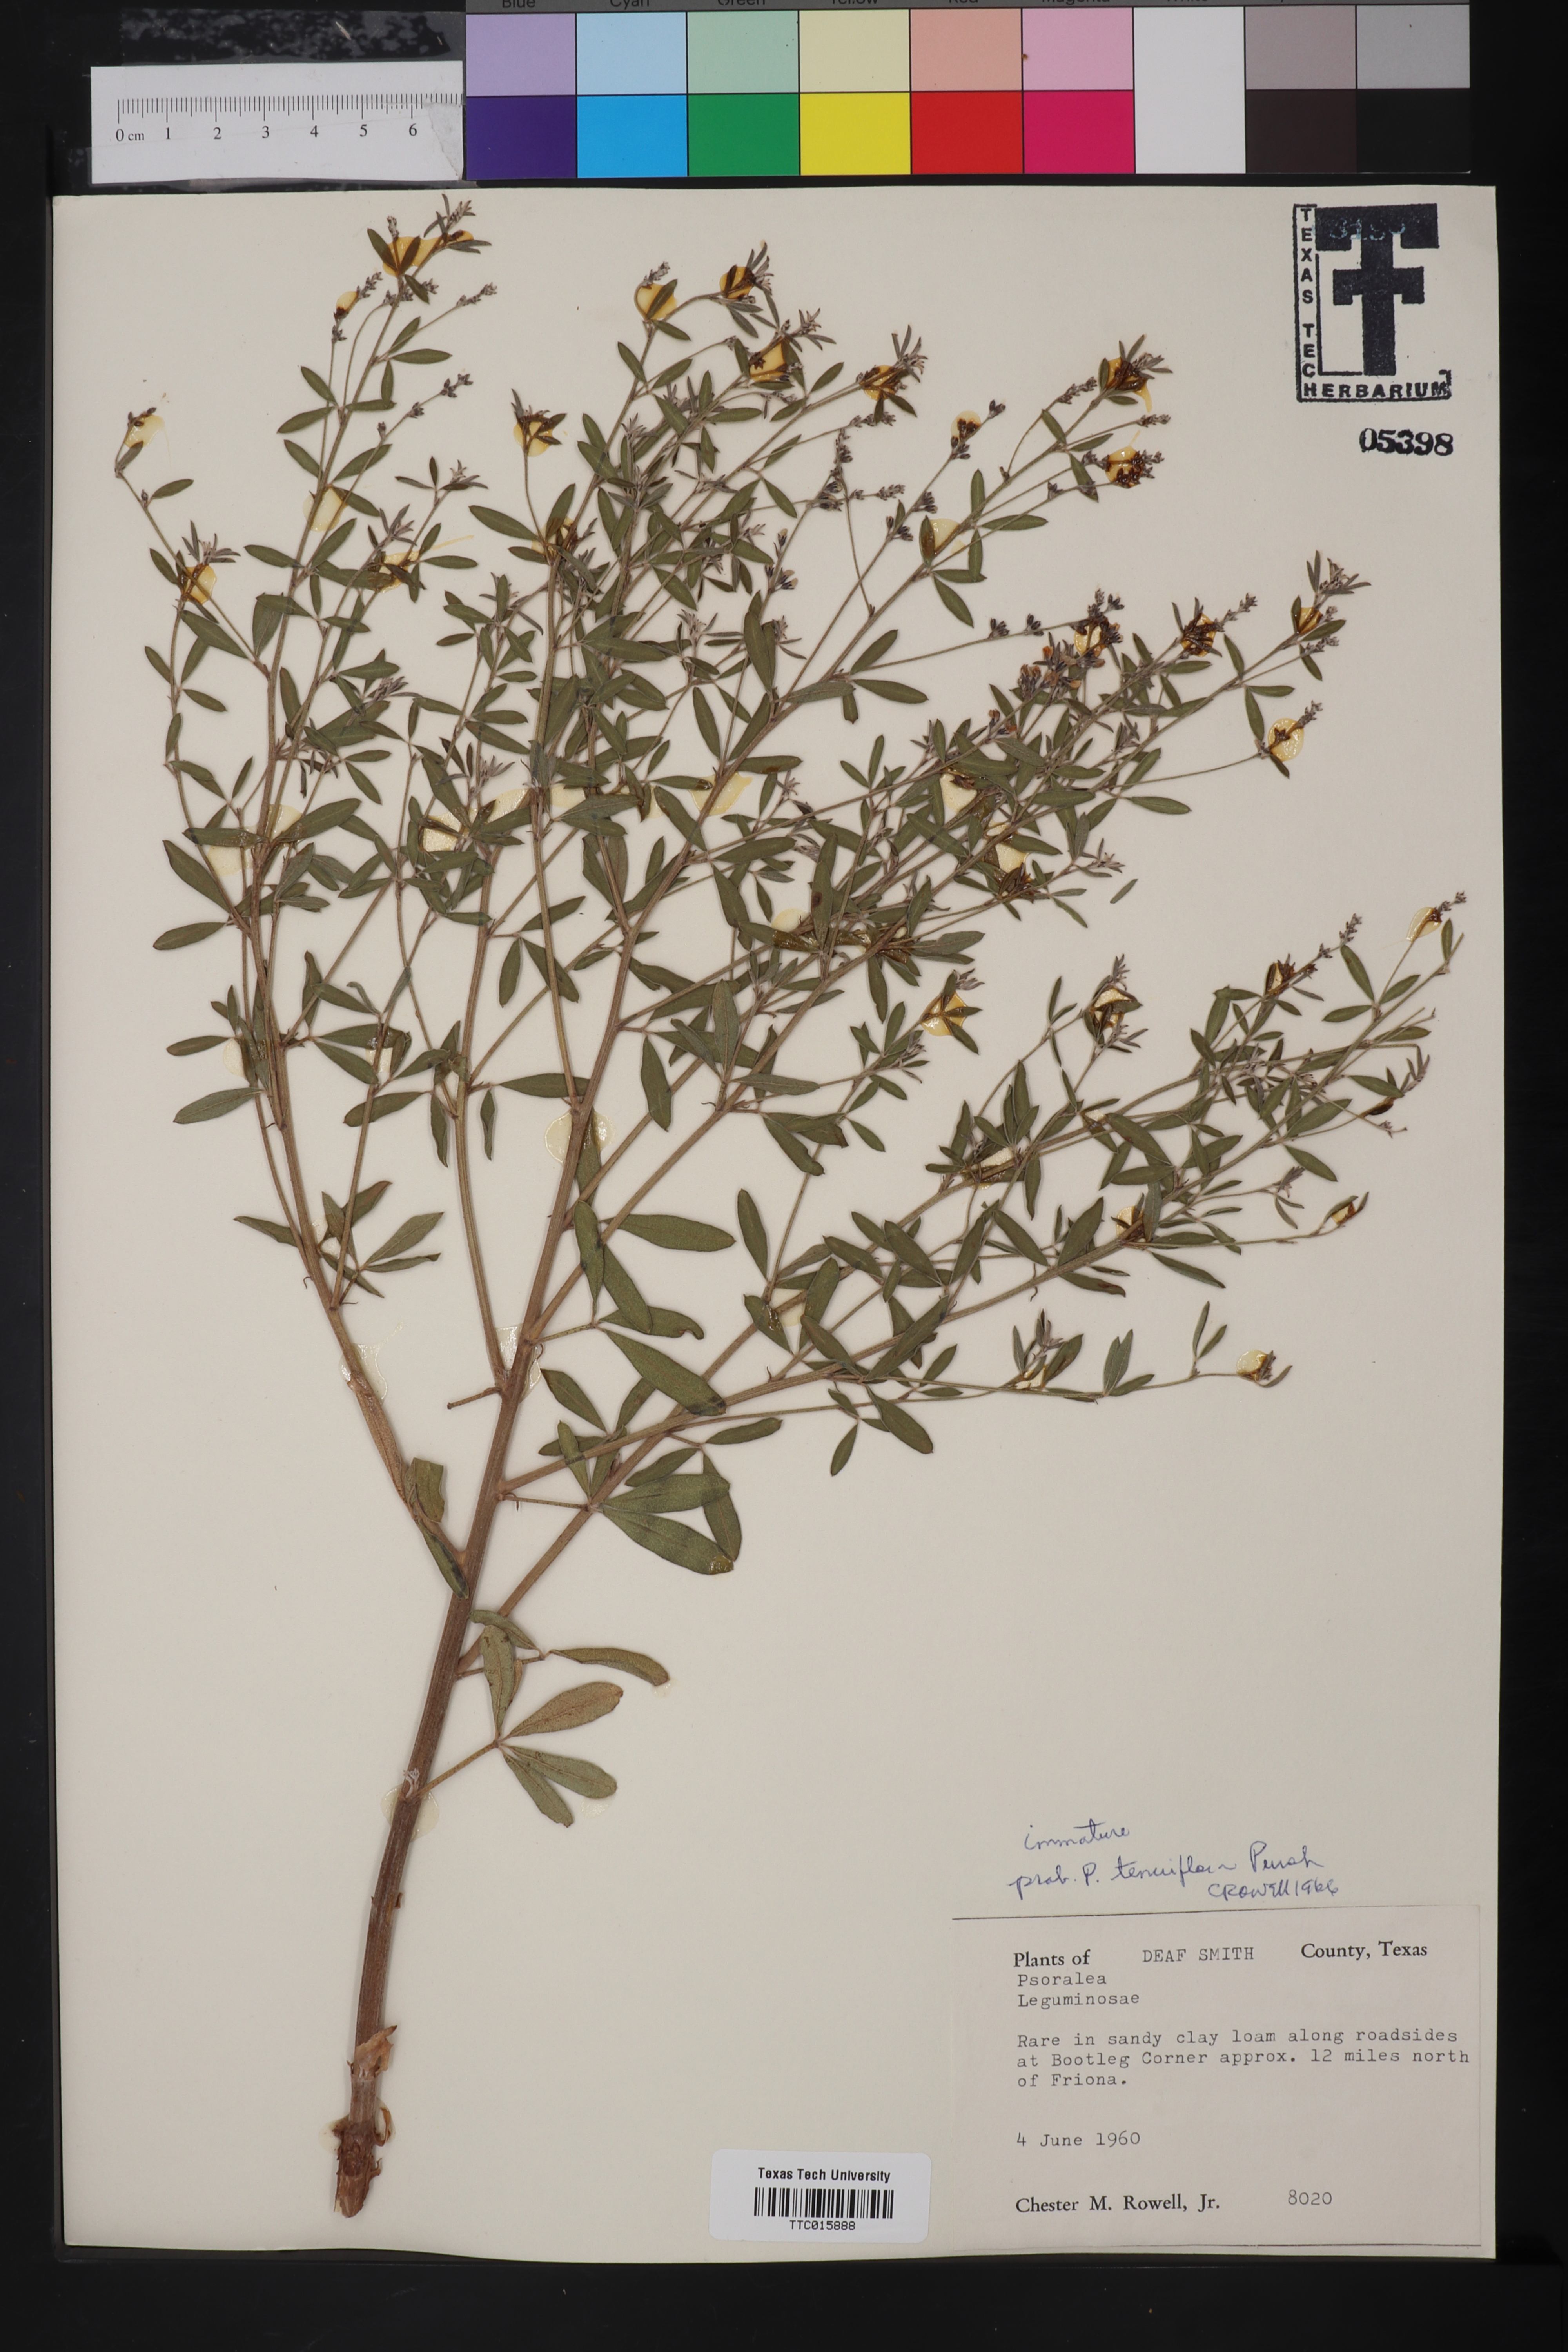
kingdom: Plantae
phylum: Tracheophyta
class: Magnoliopsida
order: Fabales
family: Fabaceae
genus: Pediomelum
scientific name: Pediomelum tenuiflorum
